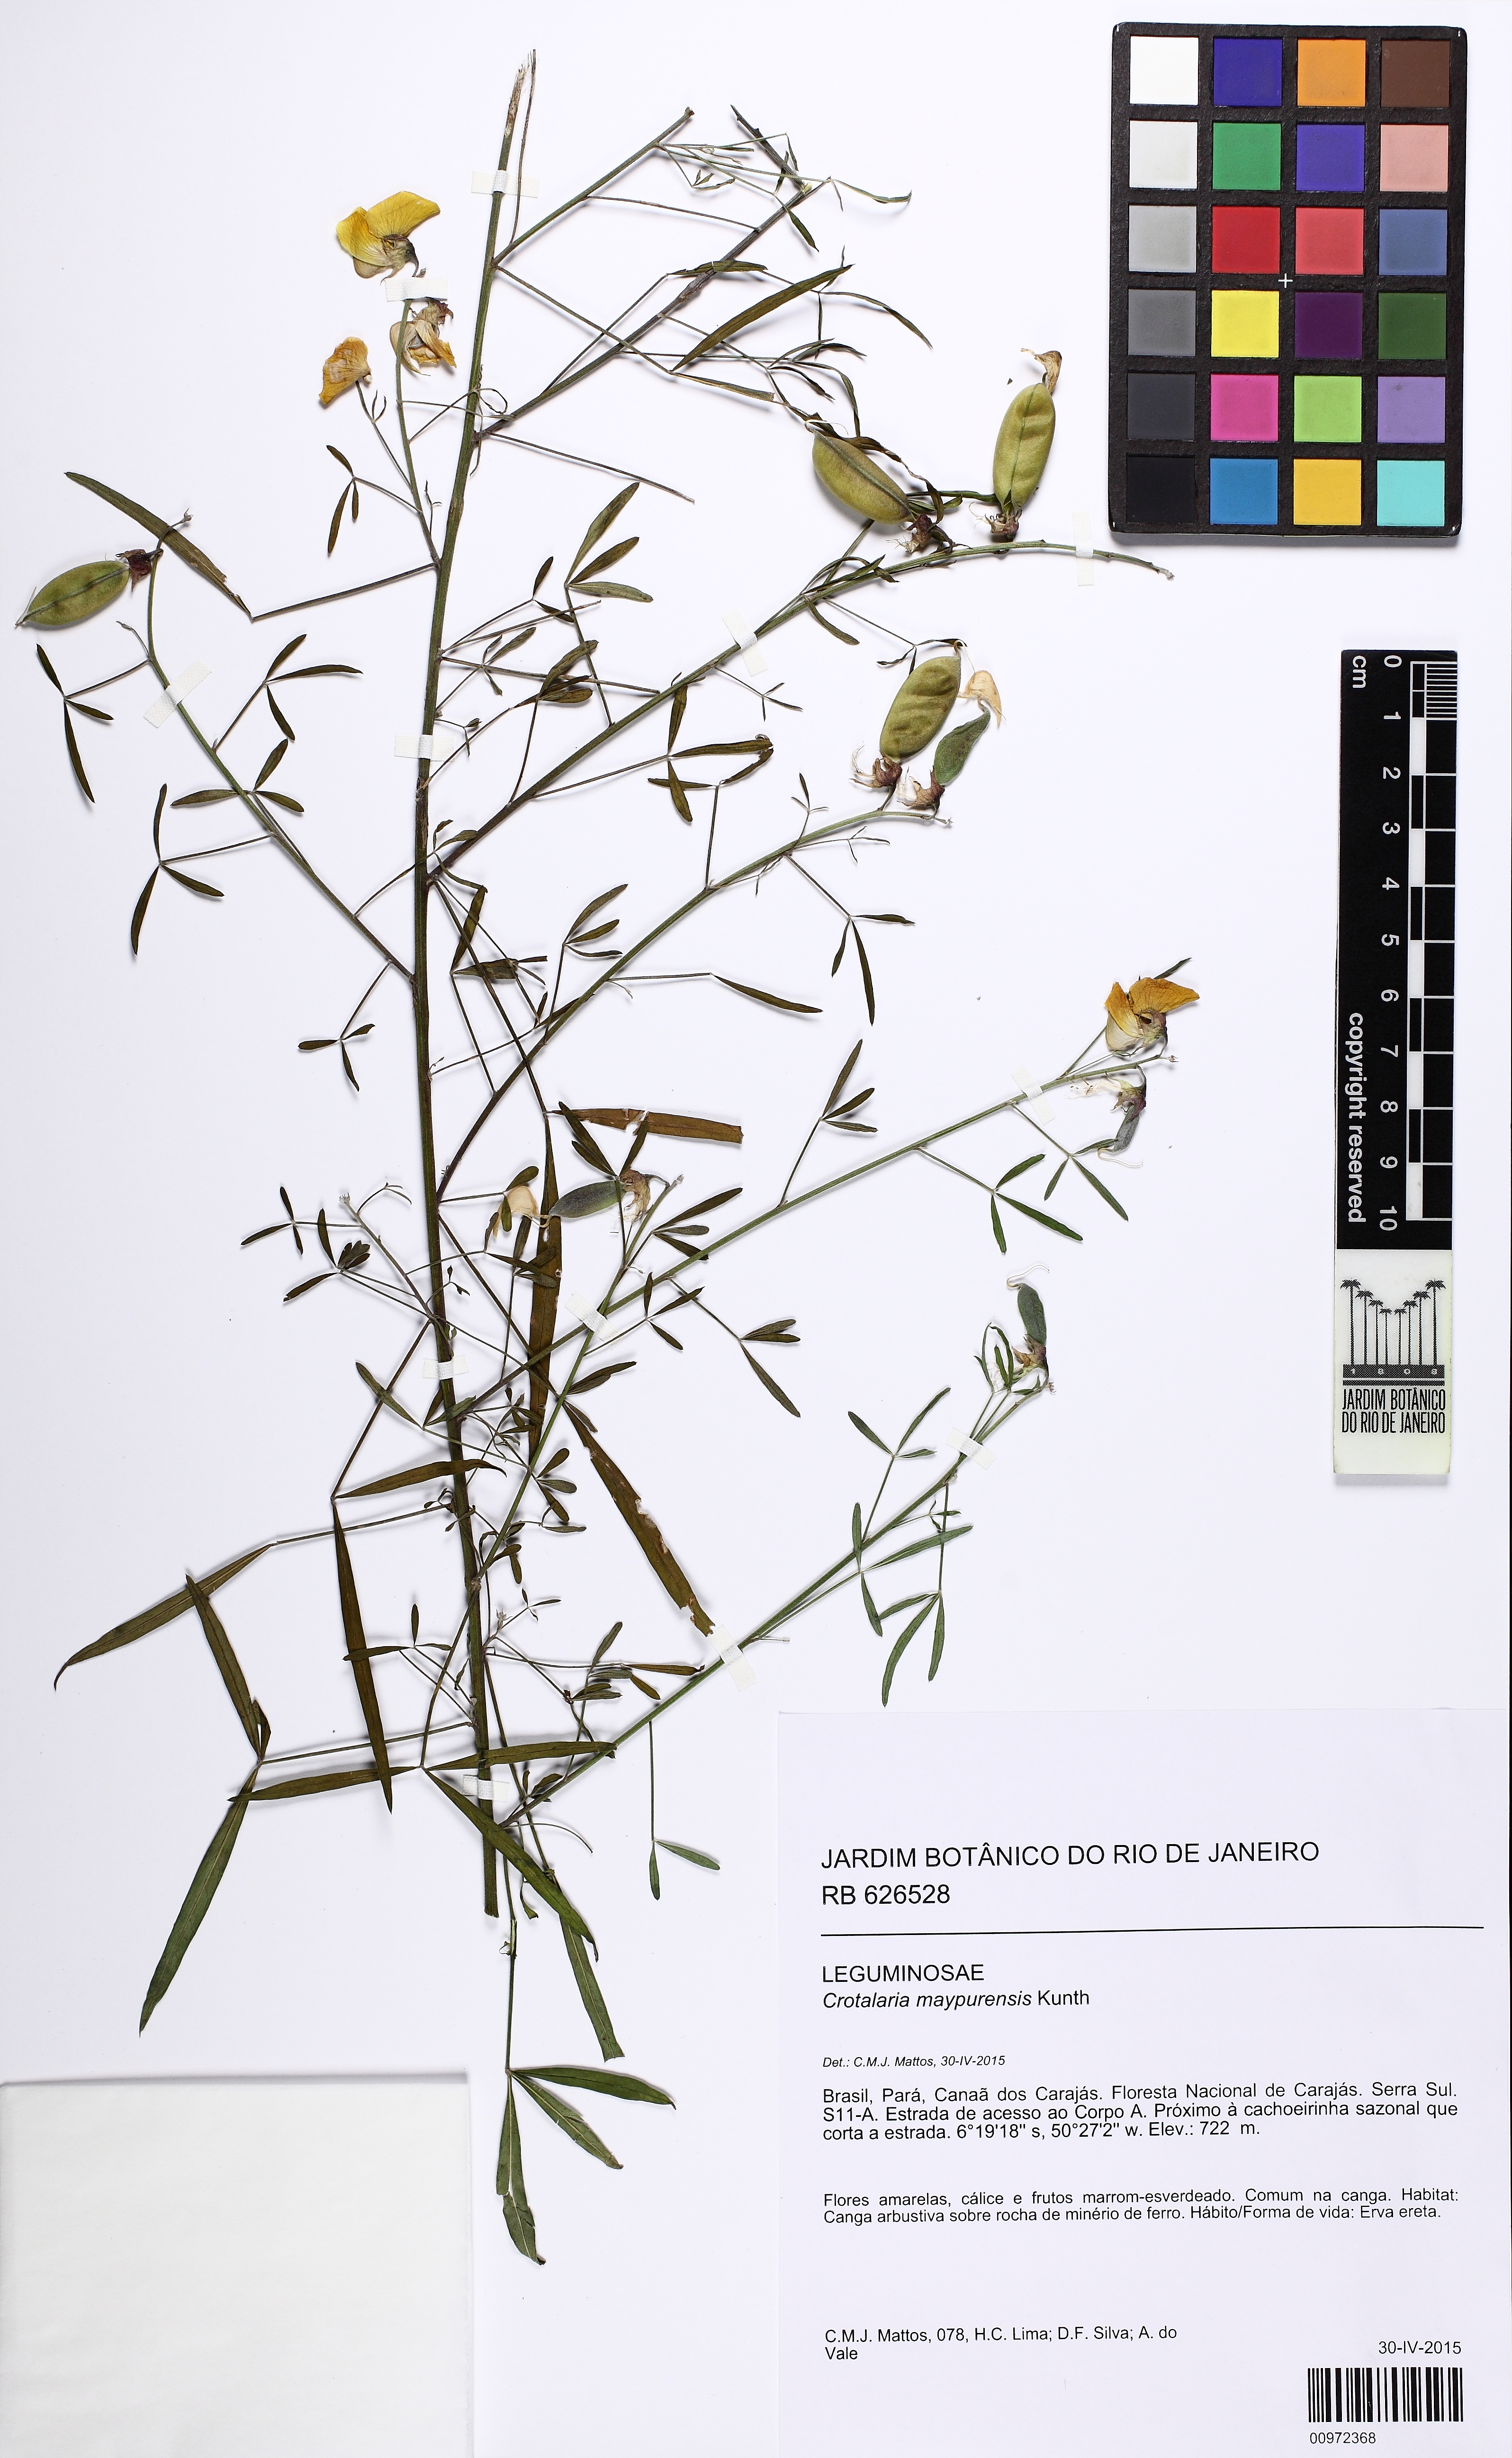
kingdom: Plantae
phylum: Tracheophyta
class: Magnoliopsida
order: Fabales
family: Fabaceae
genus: Crotalaria
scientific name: Crotalaria maypurensis
